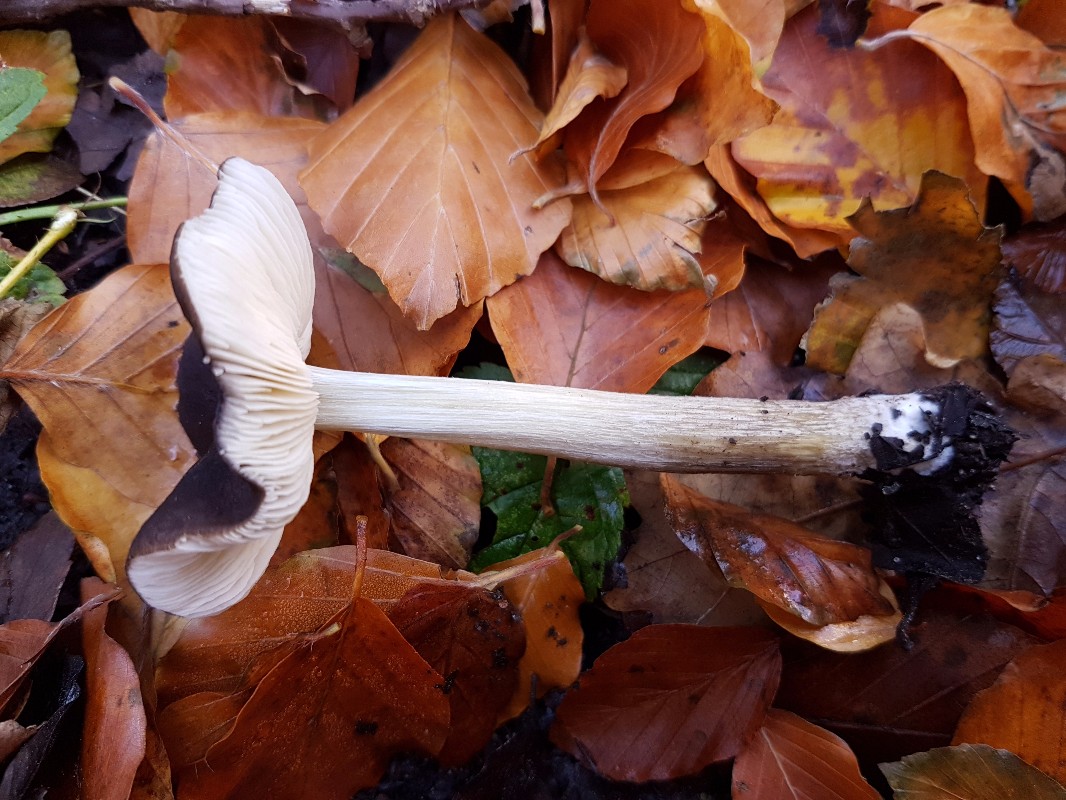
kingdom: Fungi
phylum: Basidiomycota
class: Agaricomycetes
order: Agaricales
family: Pluteaceae
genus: Pluteus
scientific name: Pluteus romellii
